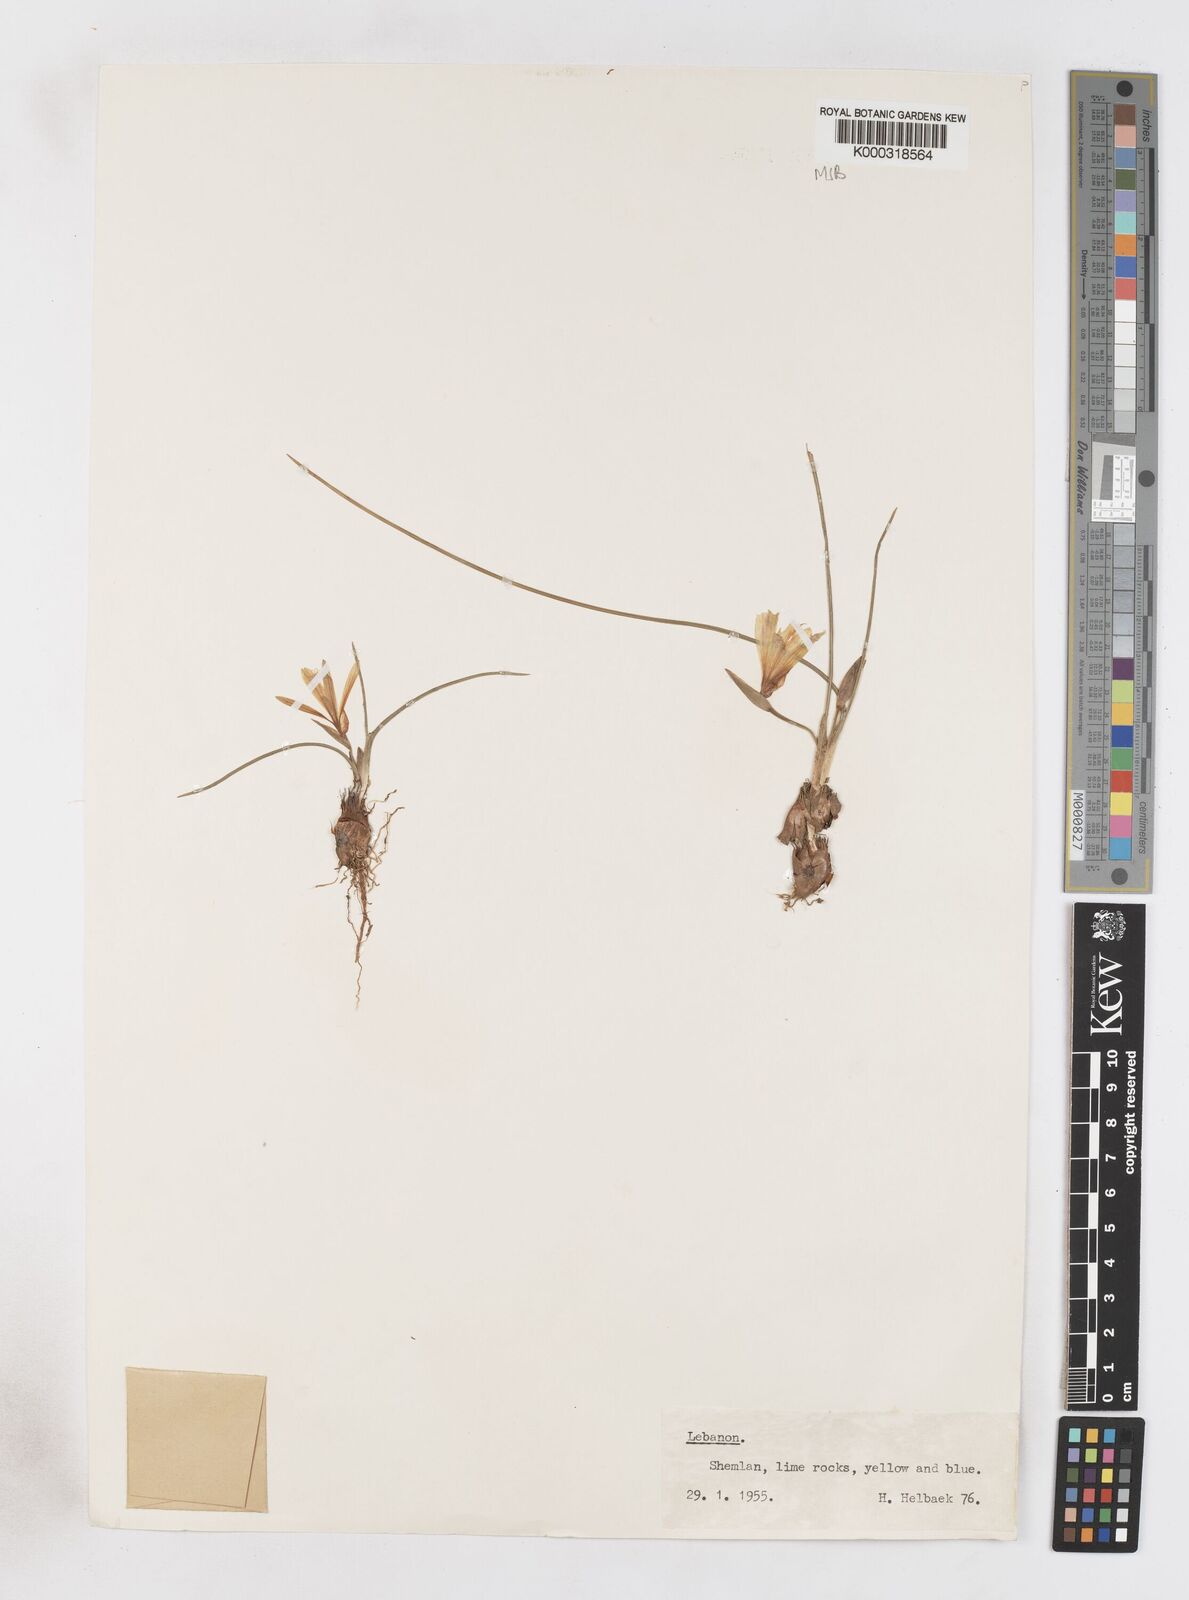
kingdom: Plantae
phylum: Tracheophyta
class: Liliopsida
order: Asparagales
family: Iridaceae
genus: Romulea
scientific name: Romulea bulbocodium
